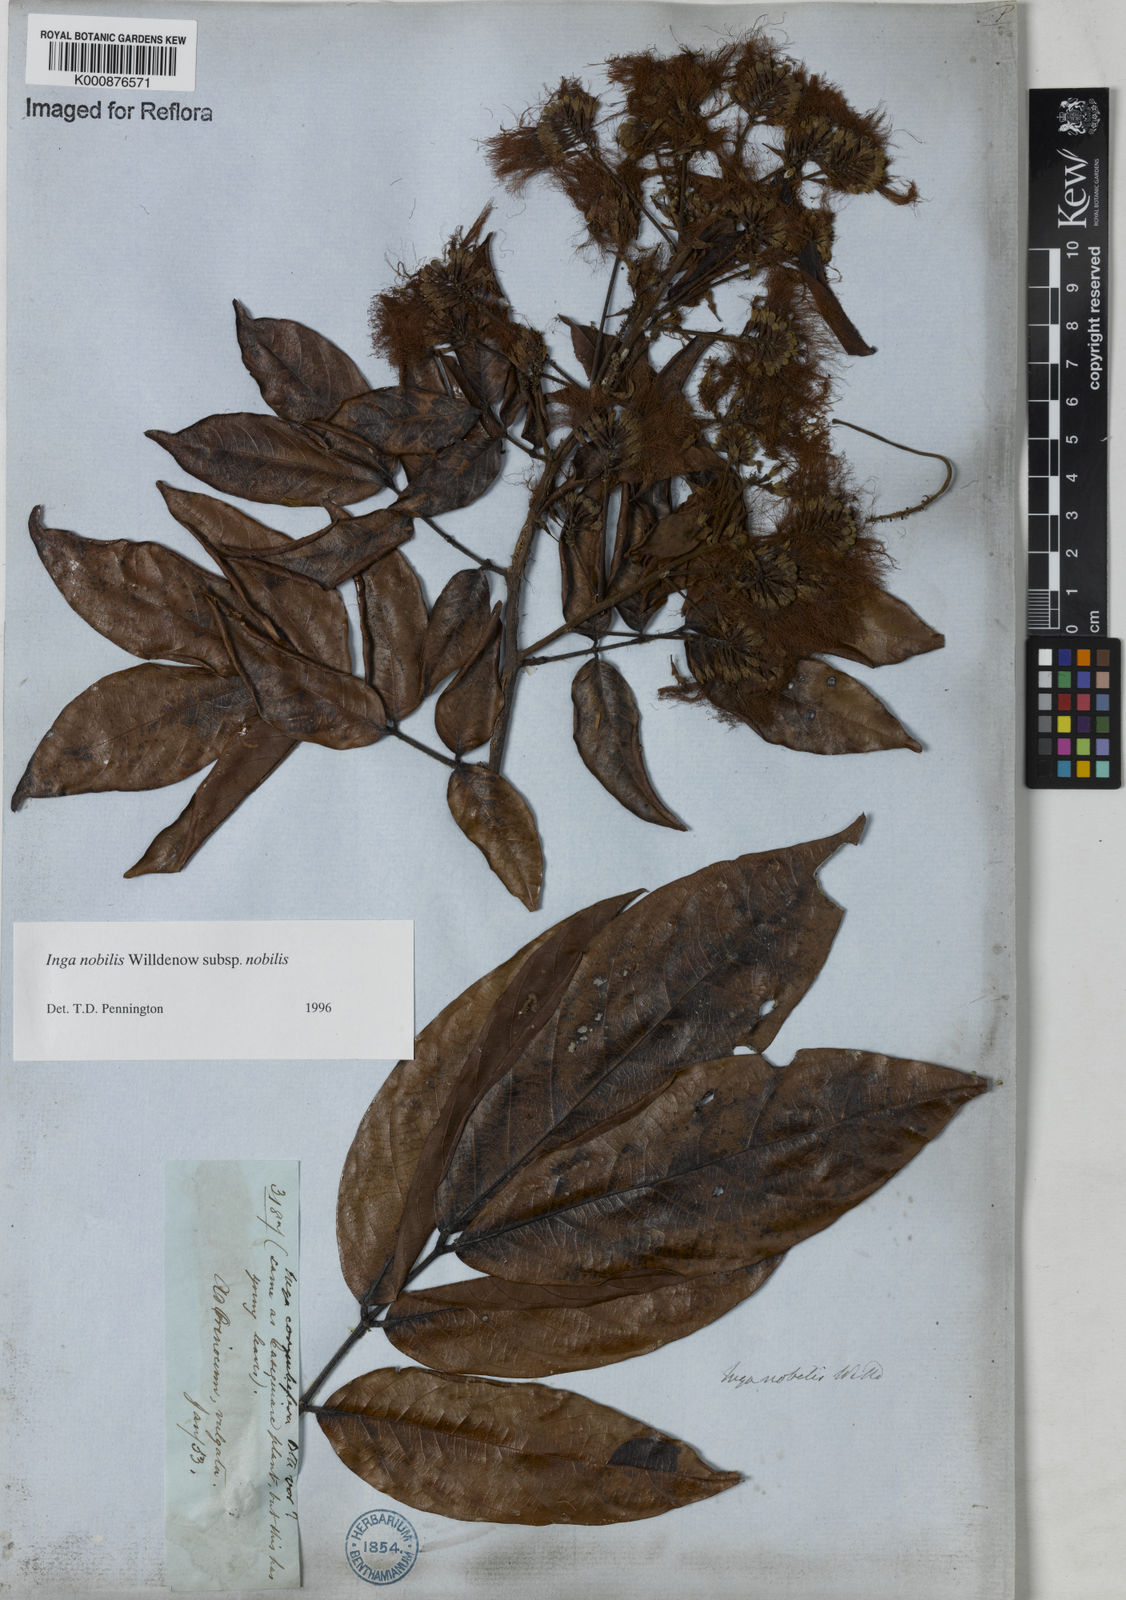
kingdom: Plantae
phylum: Tracheophyta
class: Magnoliopsida
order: Fabales
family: Fabaceae
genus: Inga
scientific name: Inga nobilis
